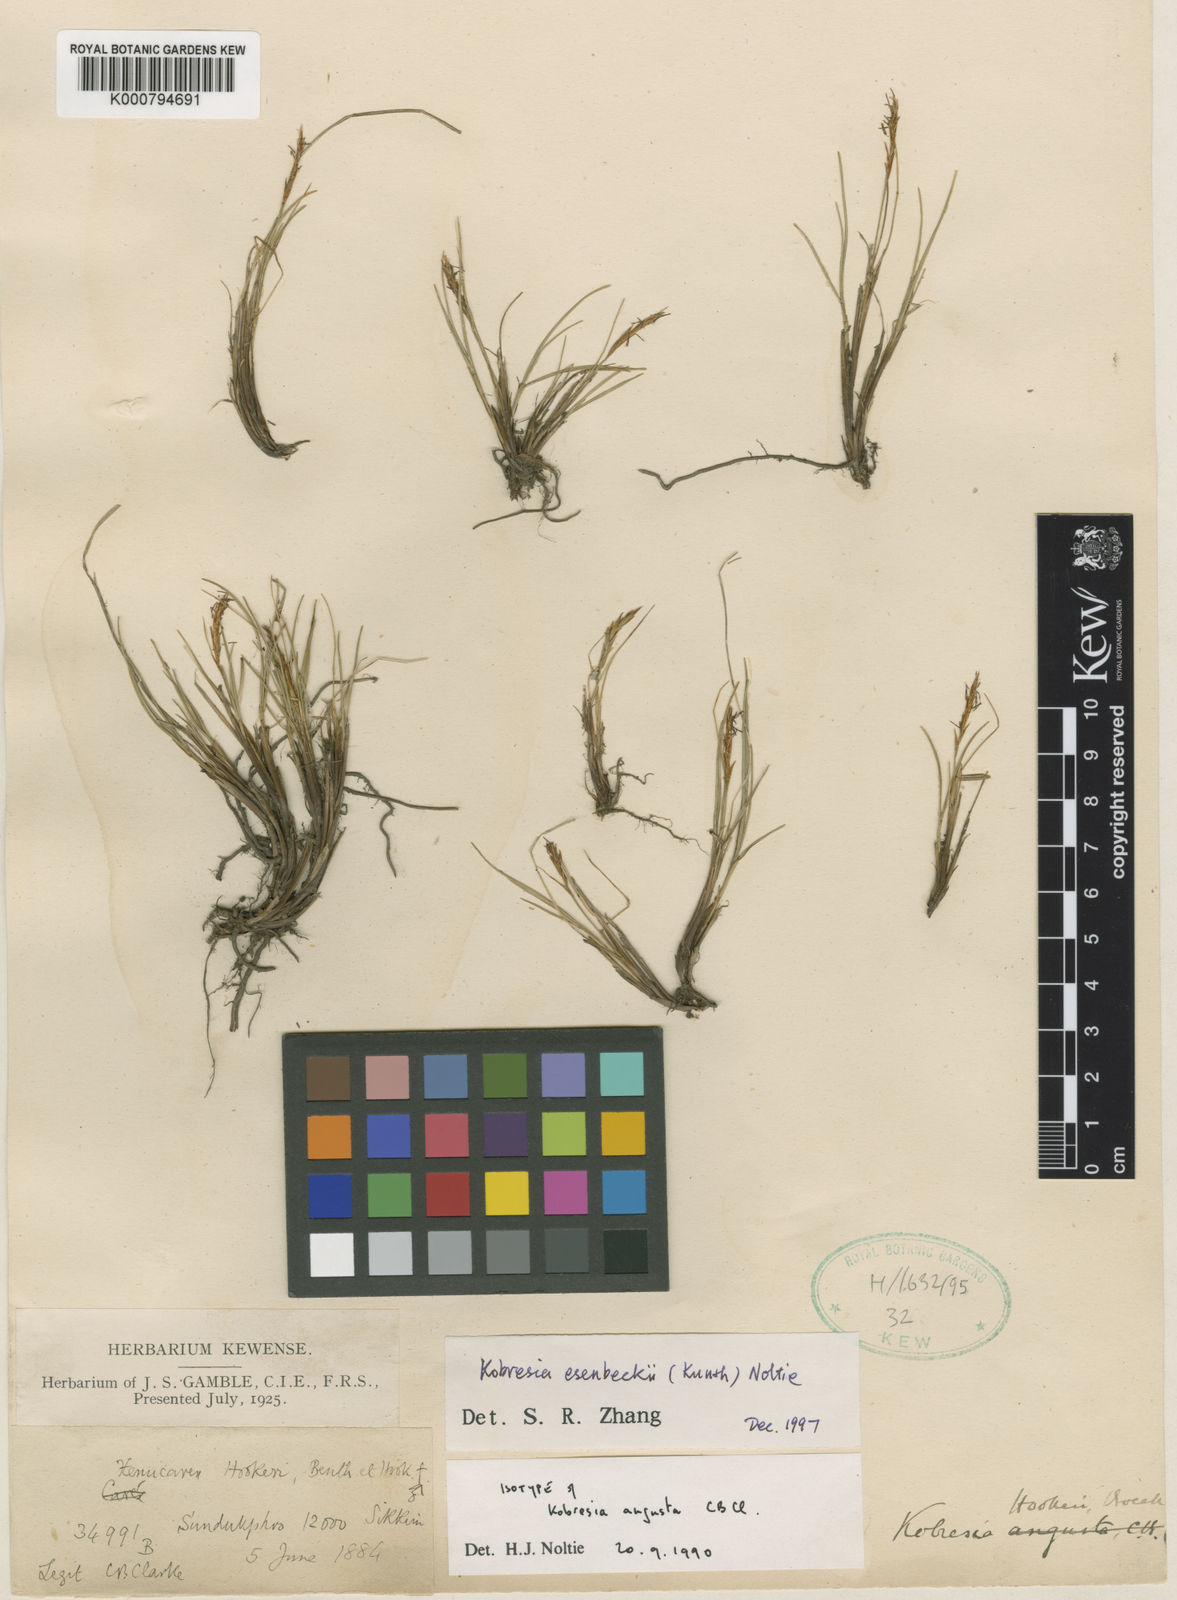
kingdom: Plantae
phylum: Tracheophyta
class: Liliopsida
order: Poales
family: Cyperaceae
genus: Carex
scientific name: Carex esenbeckii
